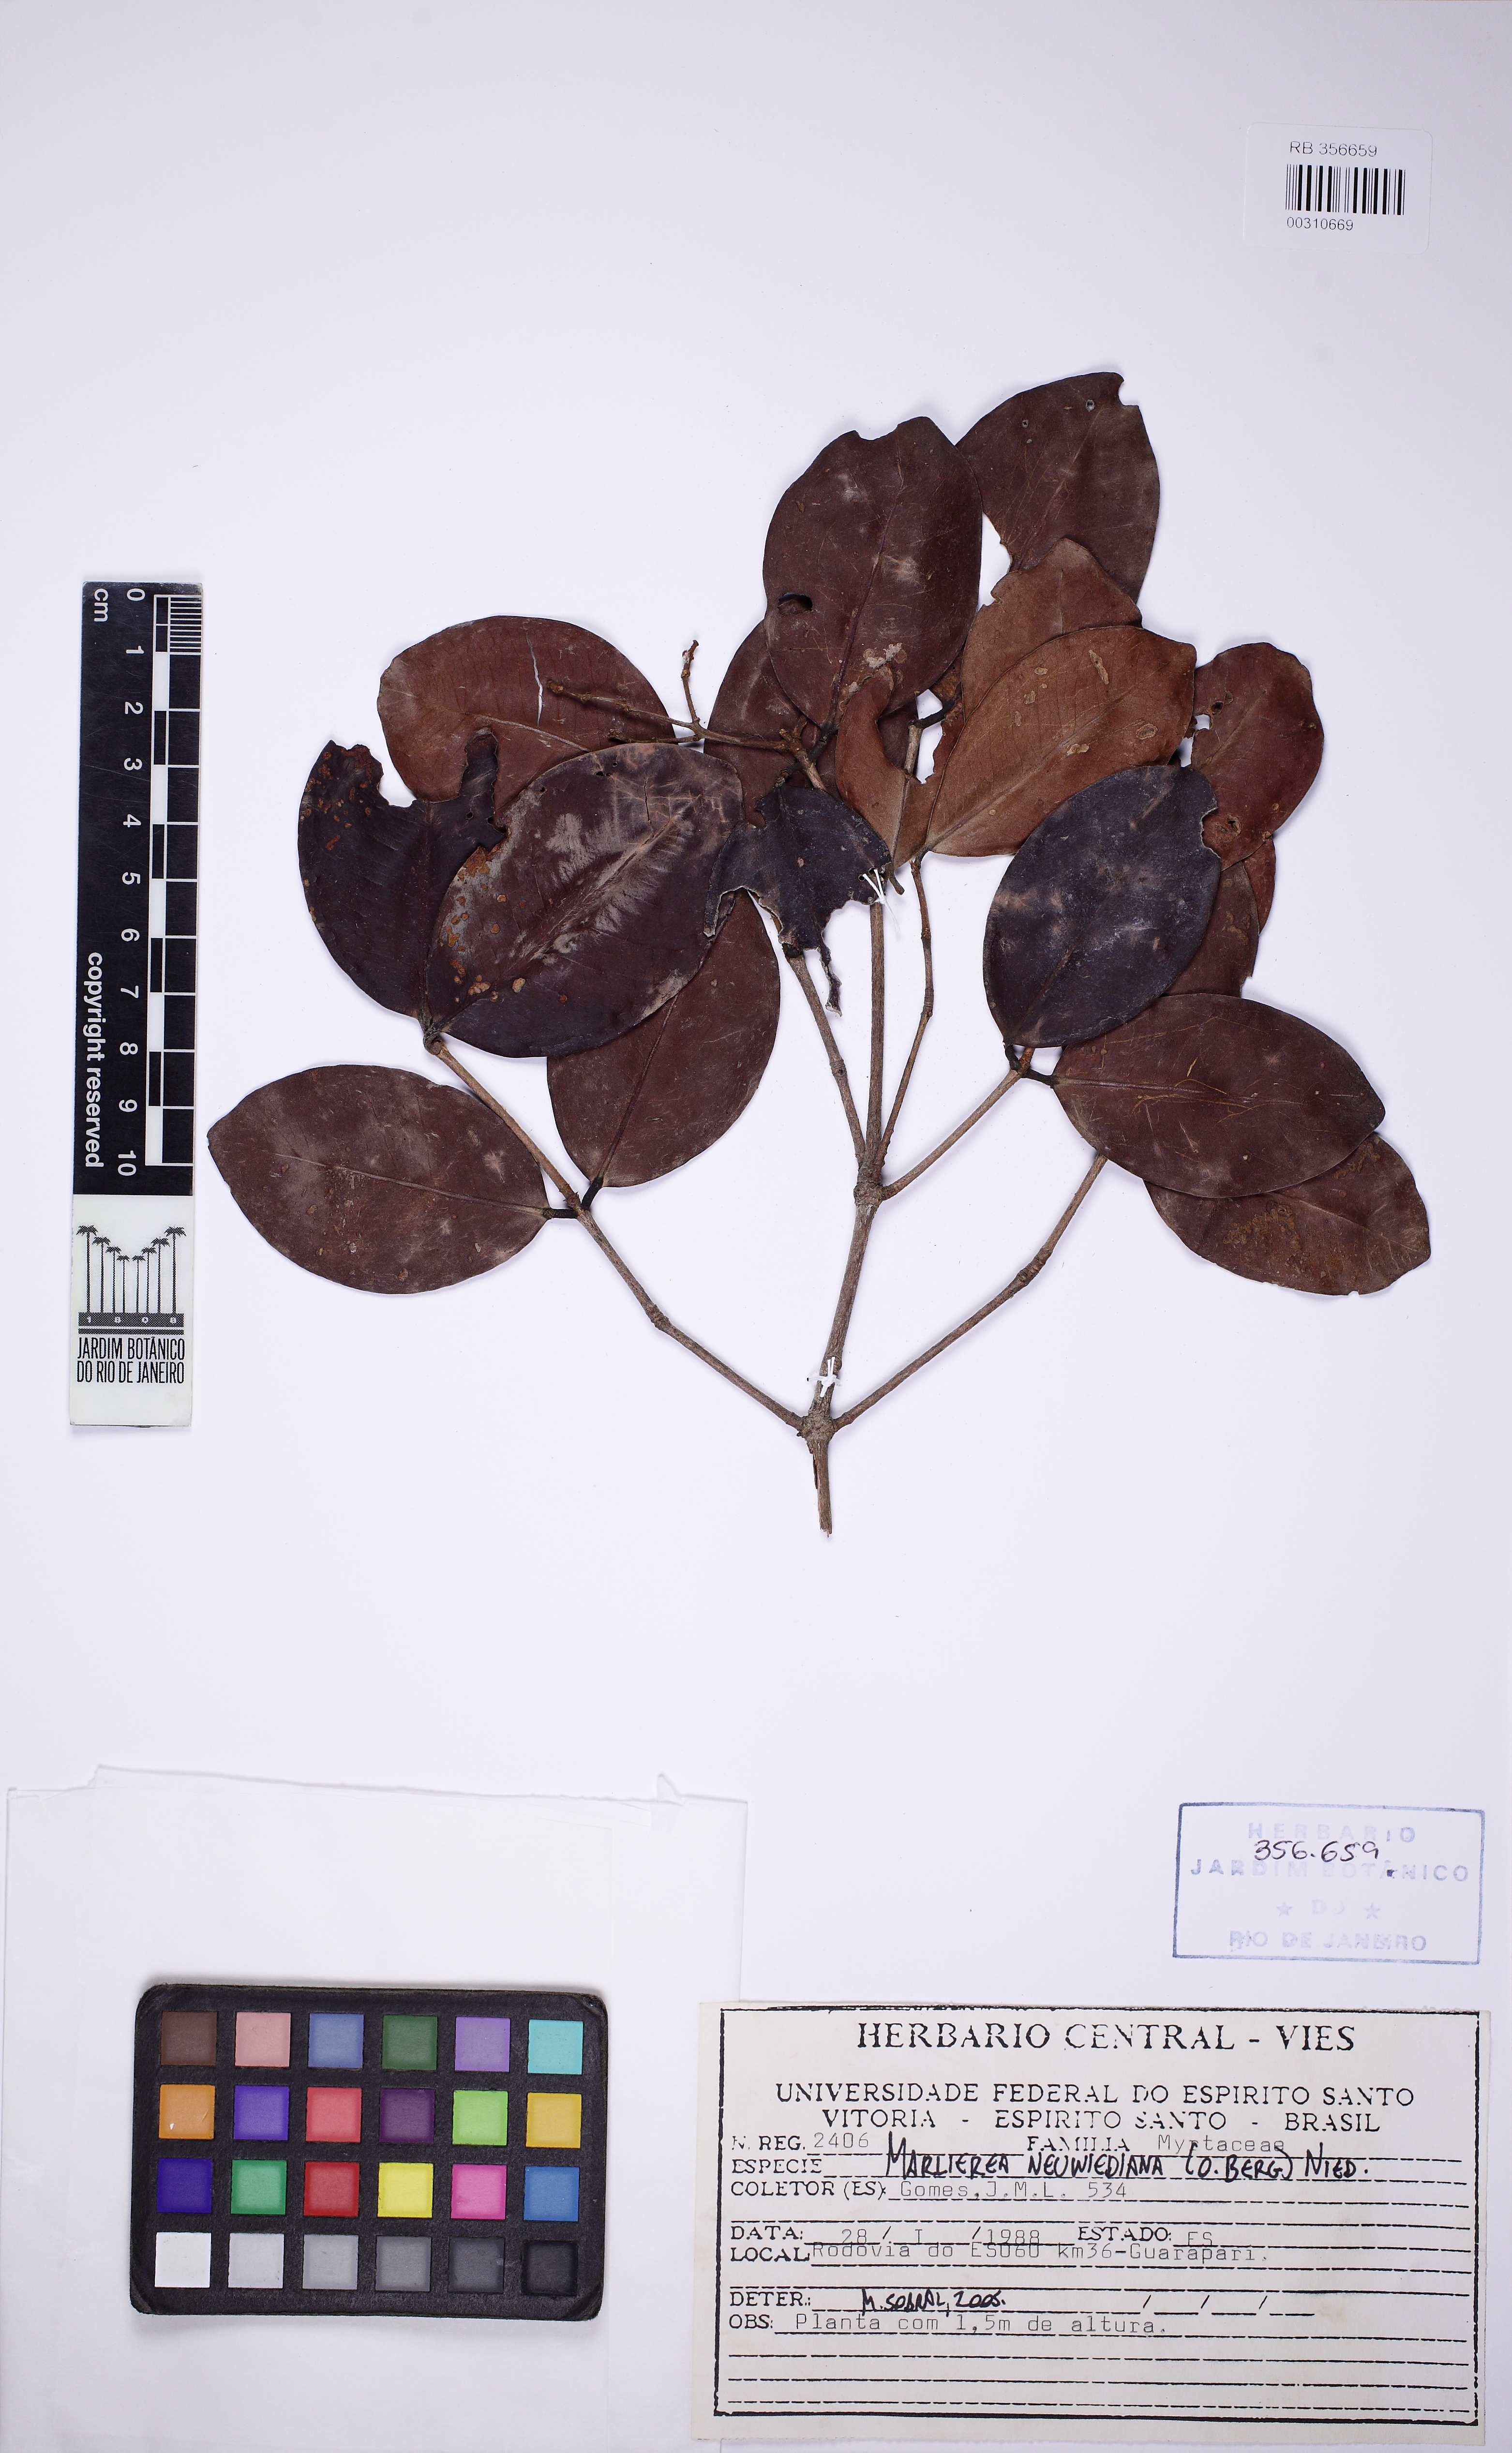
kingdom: Plantae
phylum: Tracheophyta
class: Magnoliopsida
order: Myrtales
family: Myrtaceae
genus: Myrcia
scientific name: Myrcia neuwiedeana
